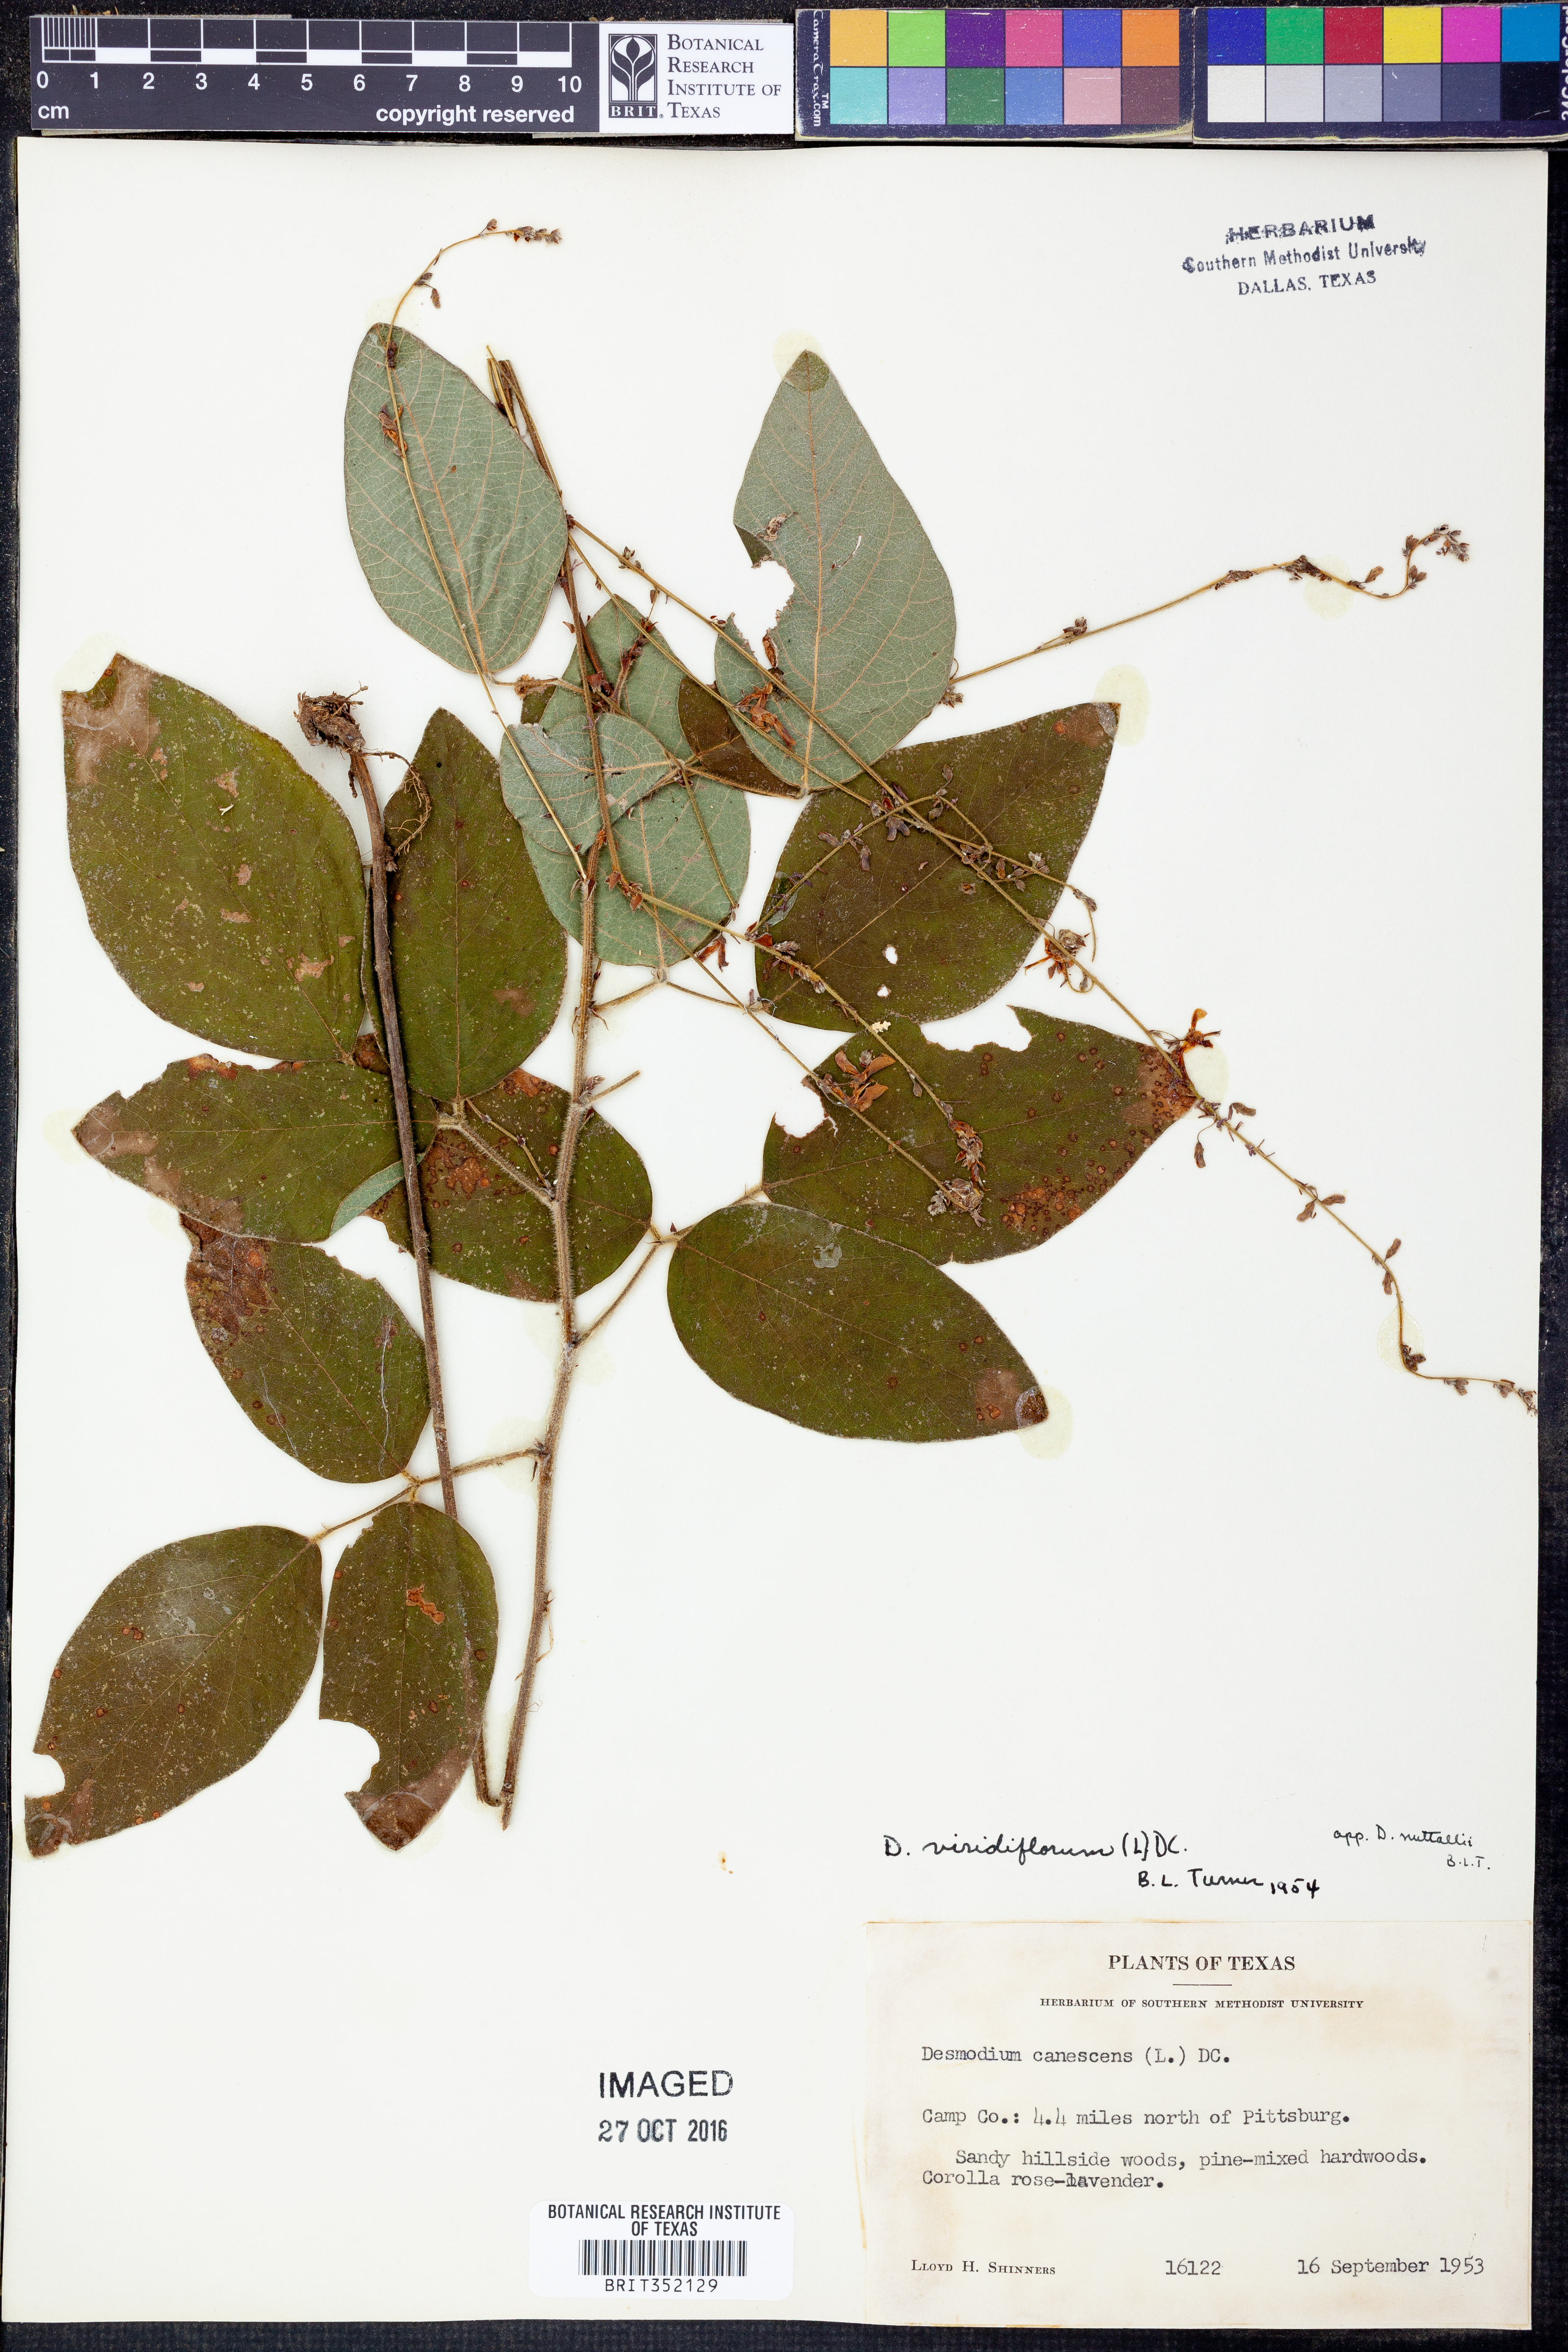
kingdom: Plantae
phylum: Tracheophyta
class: Magnoliopsida
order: Fabales
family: Fabaceae
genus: Desmodium
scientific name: Desmodium viridiflorum
